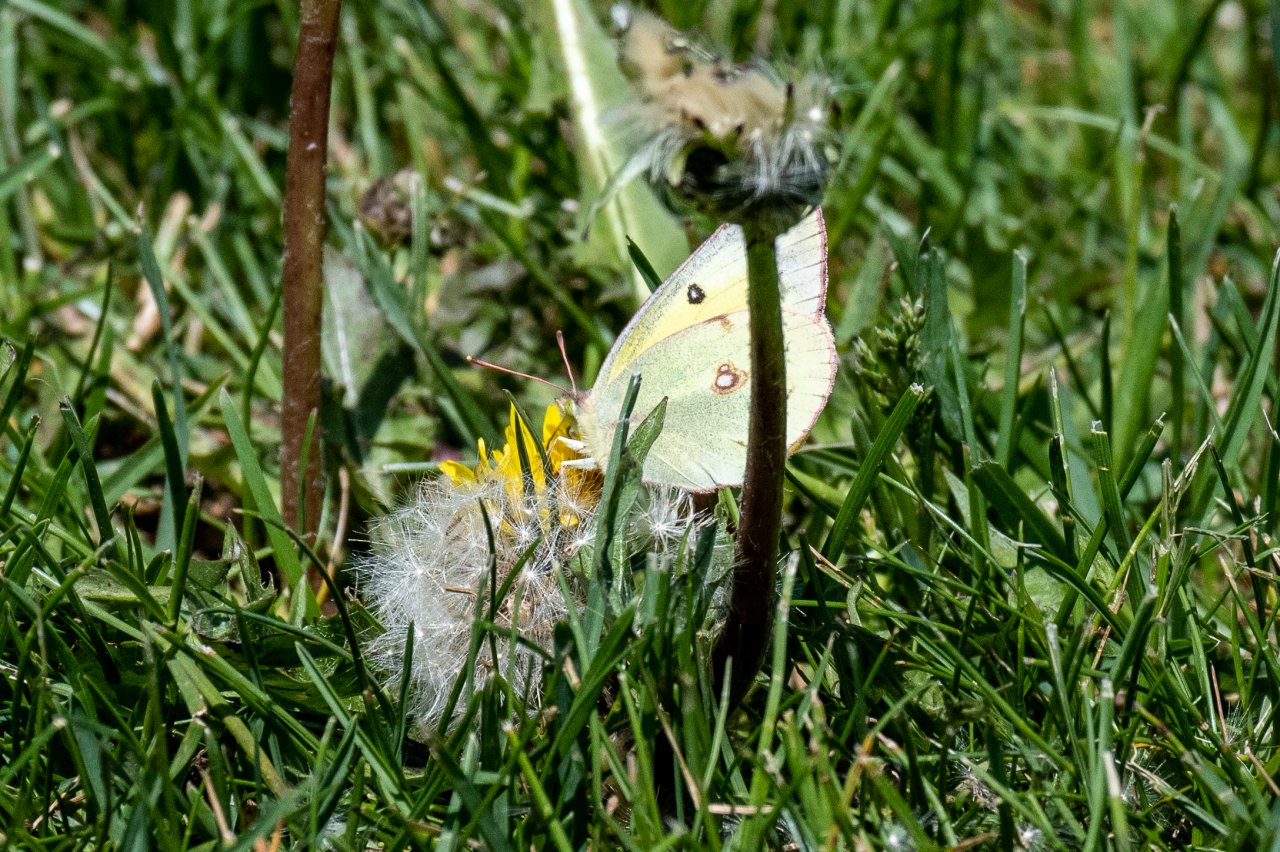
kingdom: Animalia
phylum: Arthropoda
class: Insecta
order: Lepidoptera
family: Pieridae
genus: Colias
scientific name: Colias philodice
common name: Clouded Sulphur
